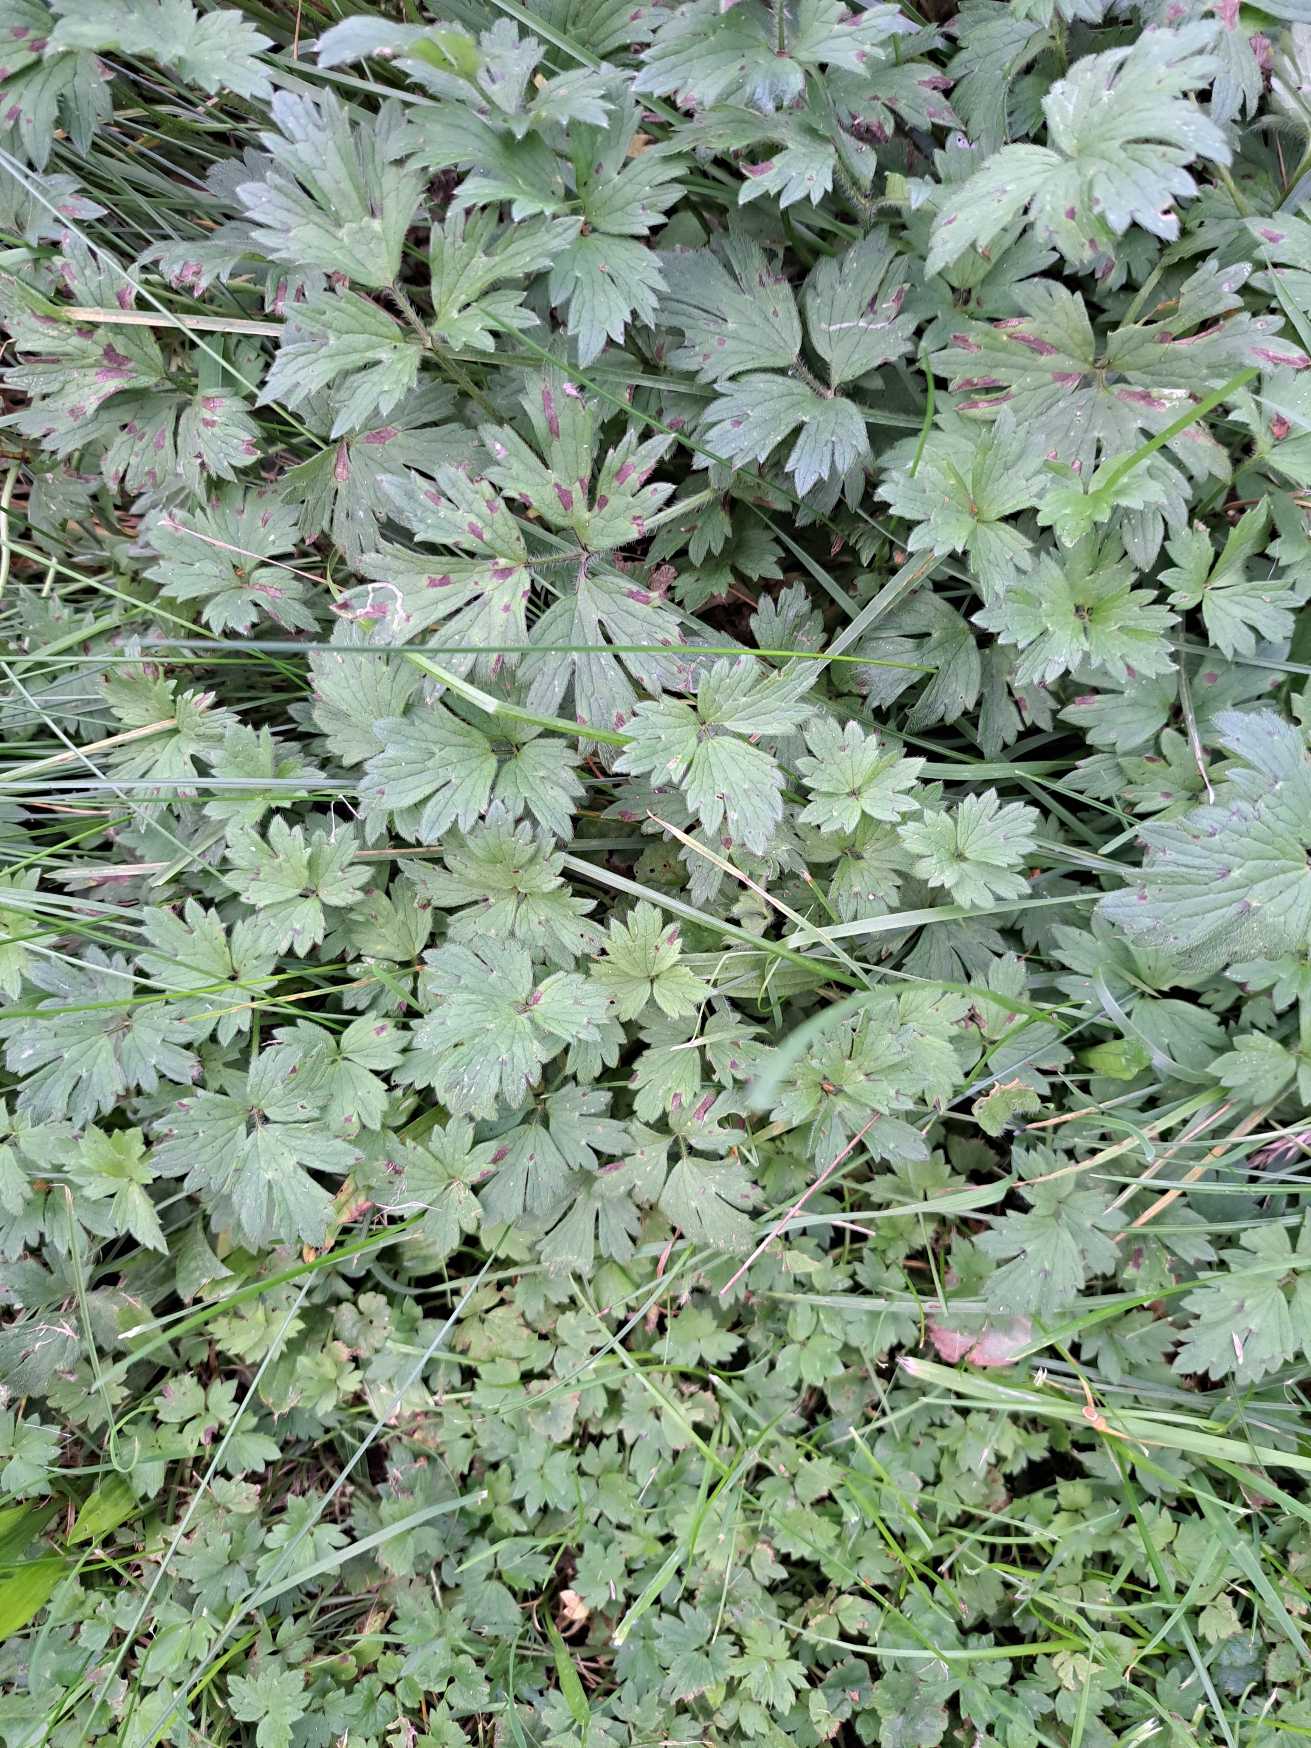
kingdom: Plantae
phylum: Tracheophyta
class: Magnoliopsida
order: Ranunculales
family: Ranunculaceae
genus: Ranunculus
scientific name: Ranunculus repens
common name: Lav ranunkel
